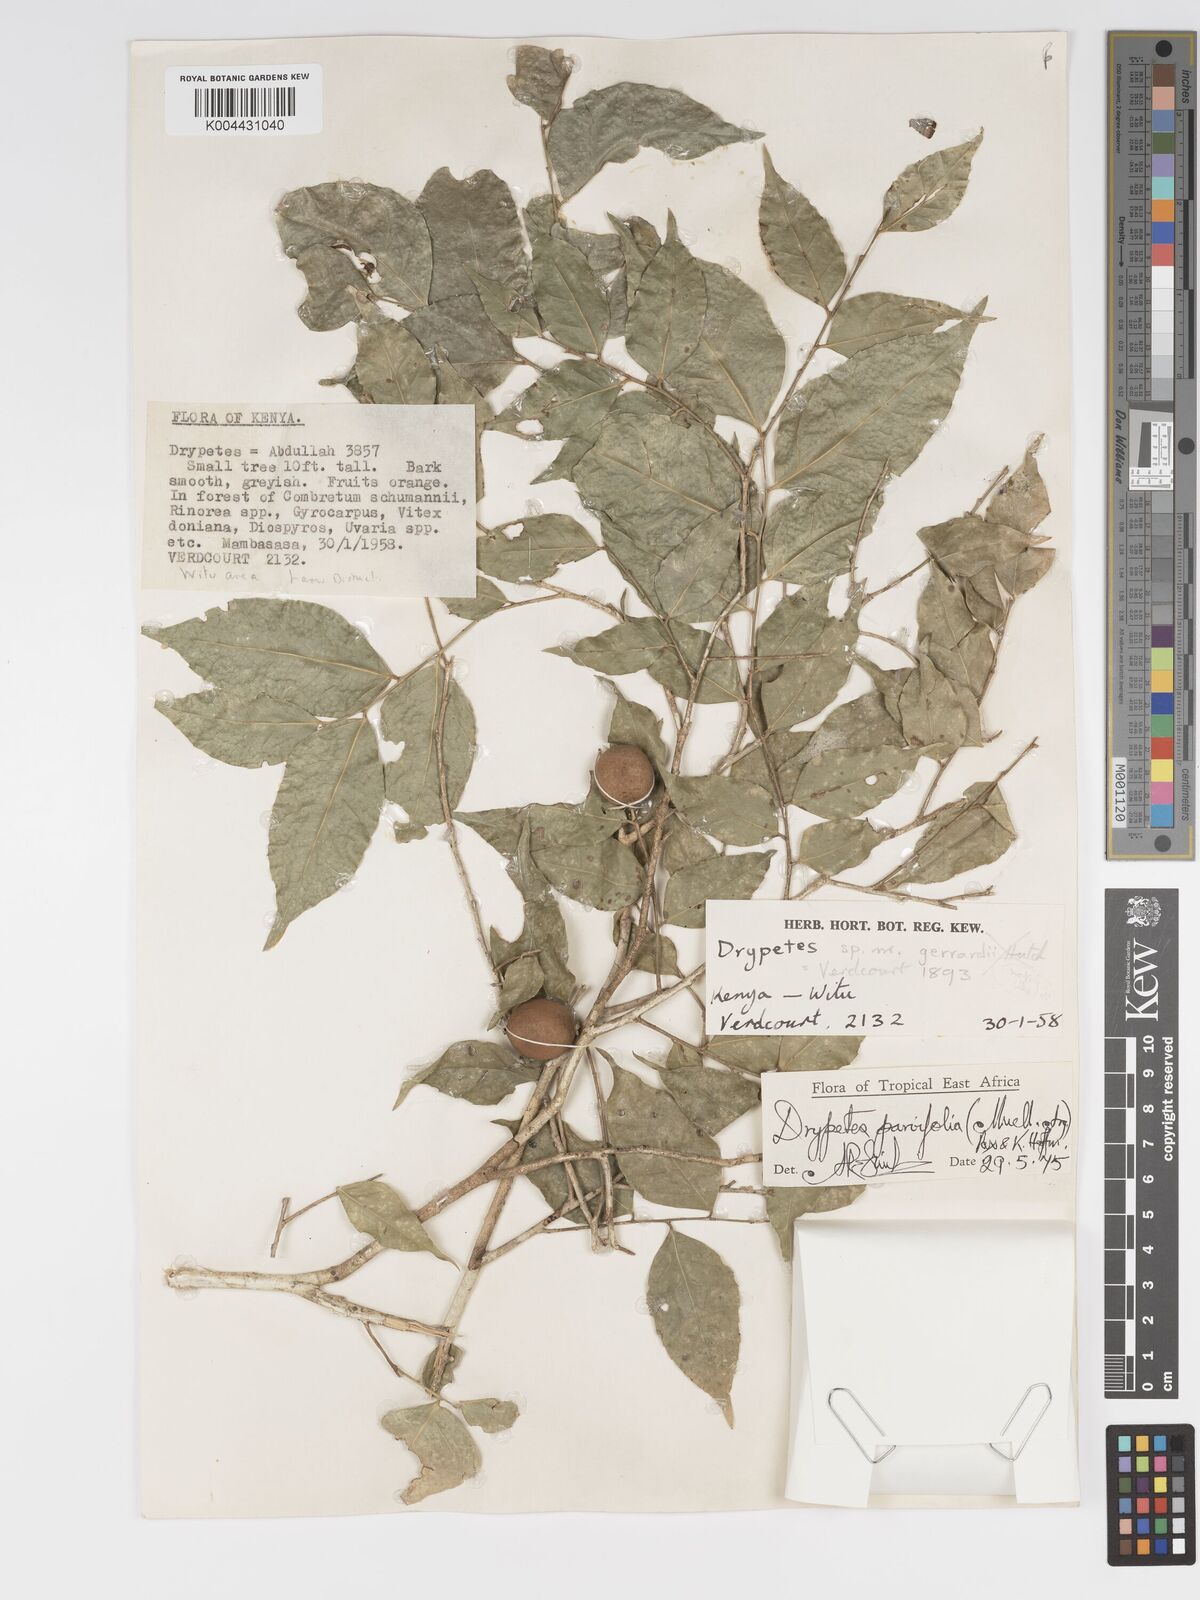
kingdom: Plantae
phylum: Tracheophyta
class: Magnoliopsida
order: Malpighiales
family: Putranjivaceae
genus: Drypetes
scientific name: Drypetes parvifolia
